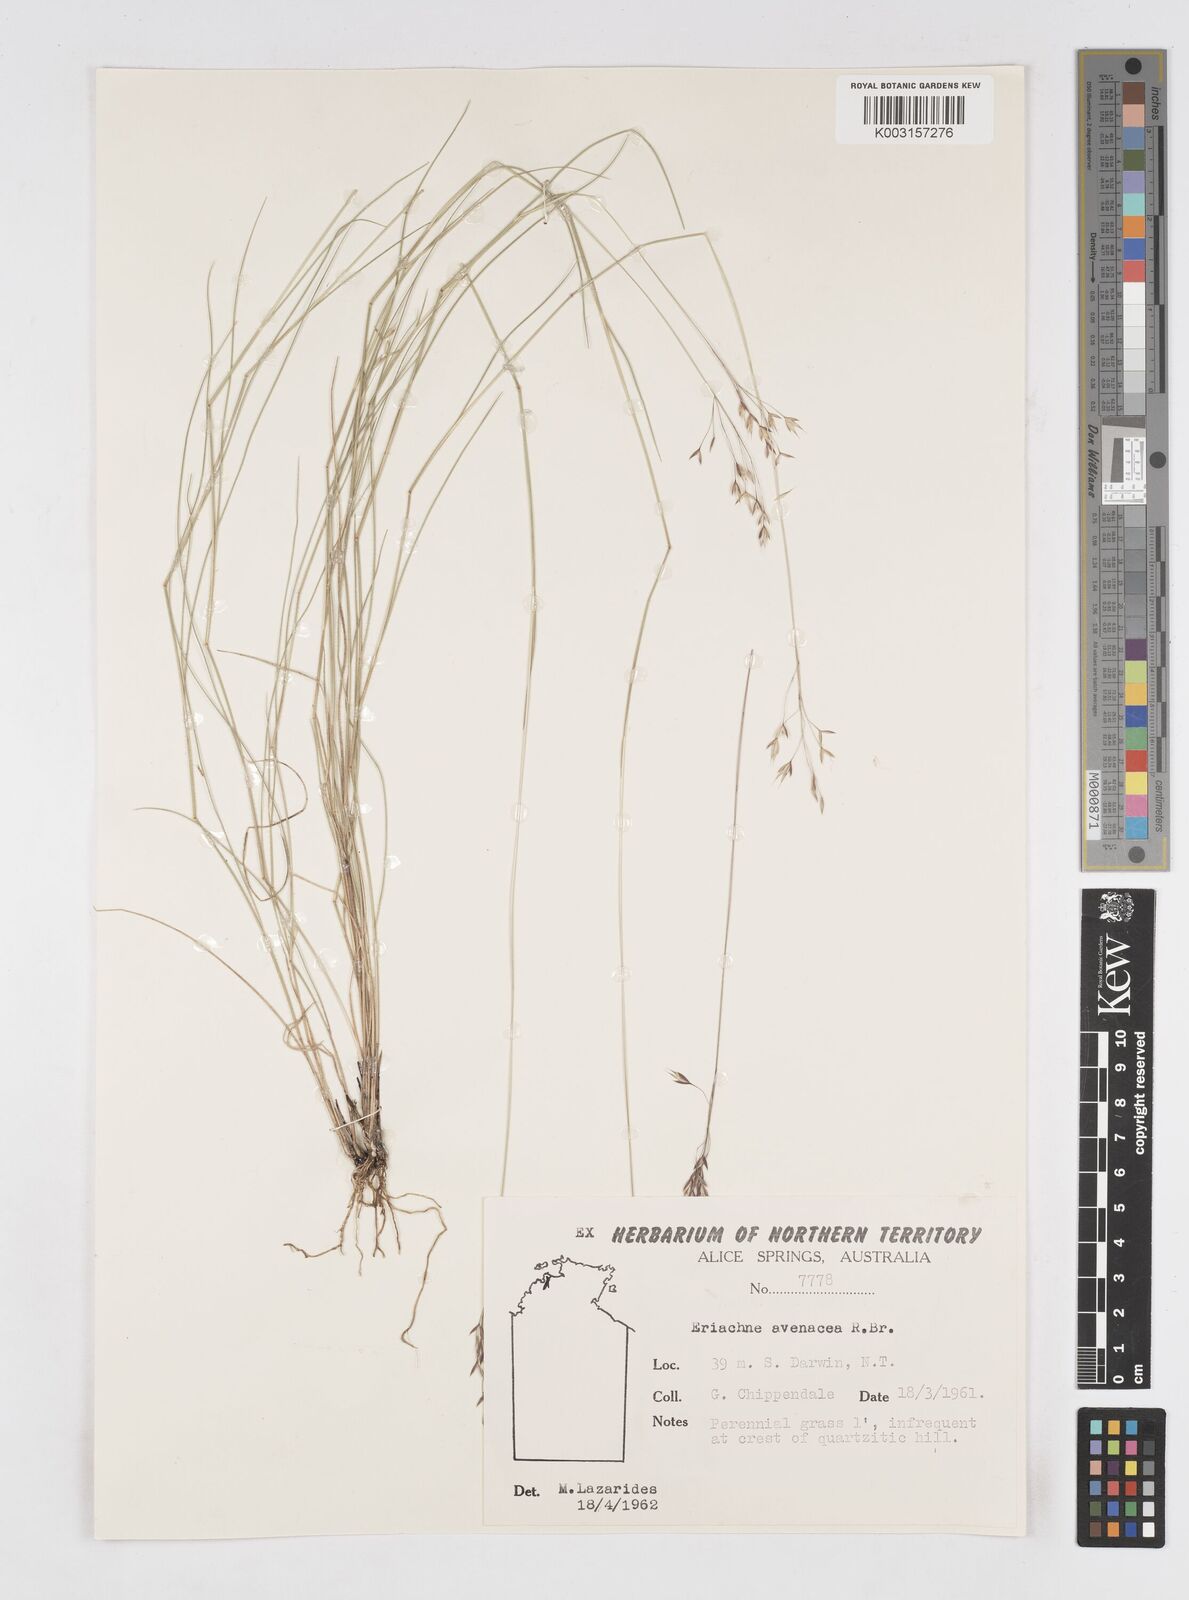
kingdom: Plantae
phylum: Tracheophyta
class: Liliopsida
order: Poales
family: Poaceae
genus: Eriachne
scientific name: Eriachne avenacea
